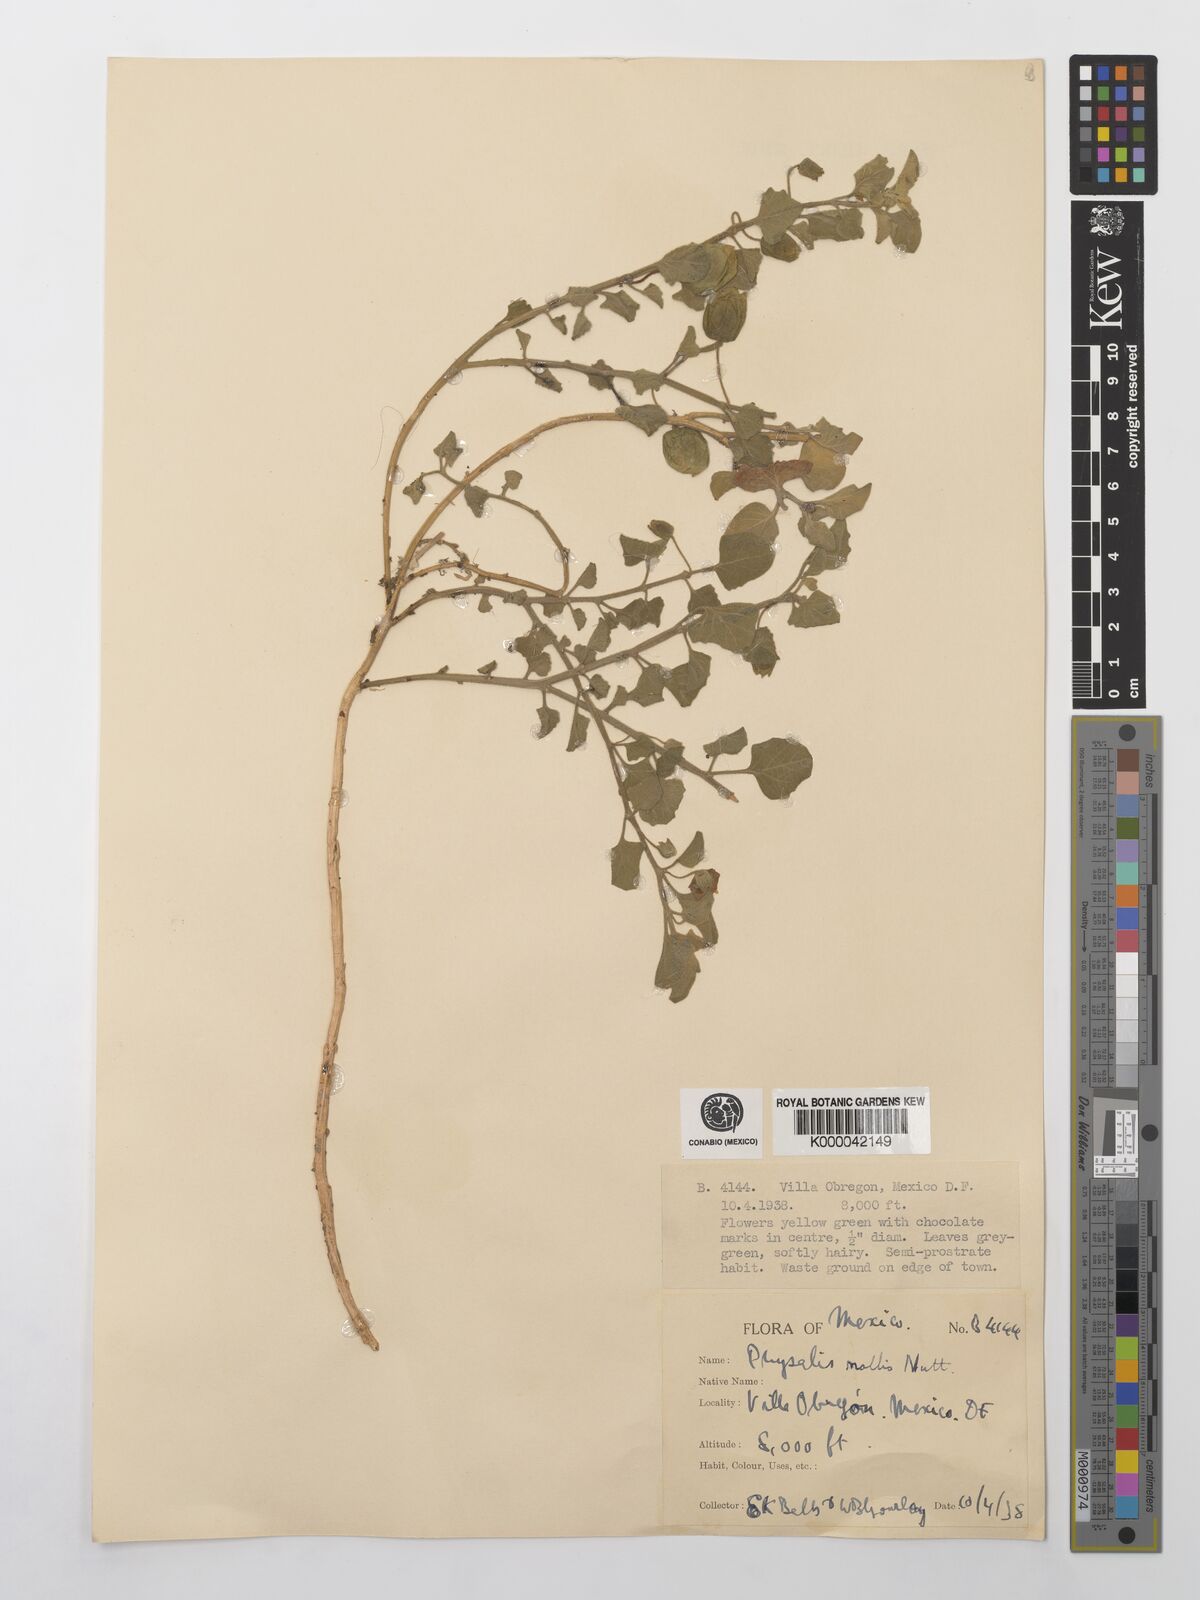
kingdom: Plantae
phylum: Tracheophyta
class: Magnoliopsida
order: Solanales
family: Solanaceae
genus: Physalis
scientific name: Physalis cinerascens
